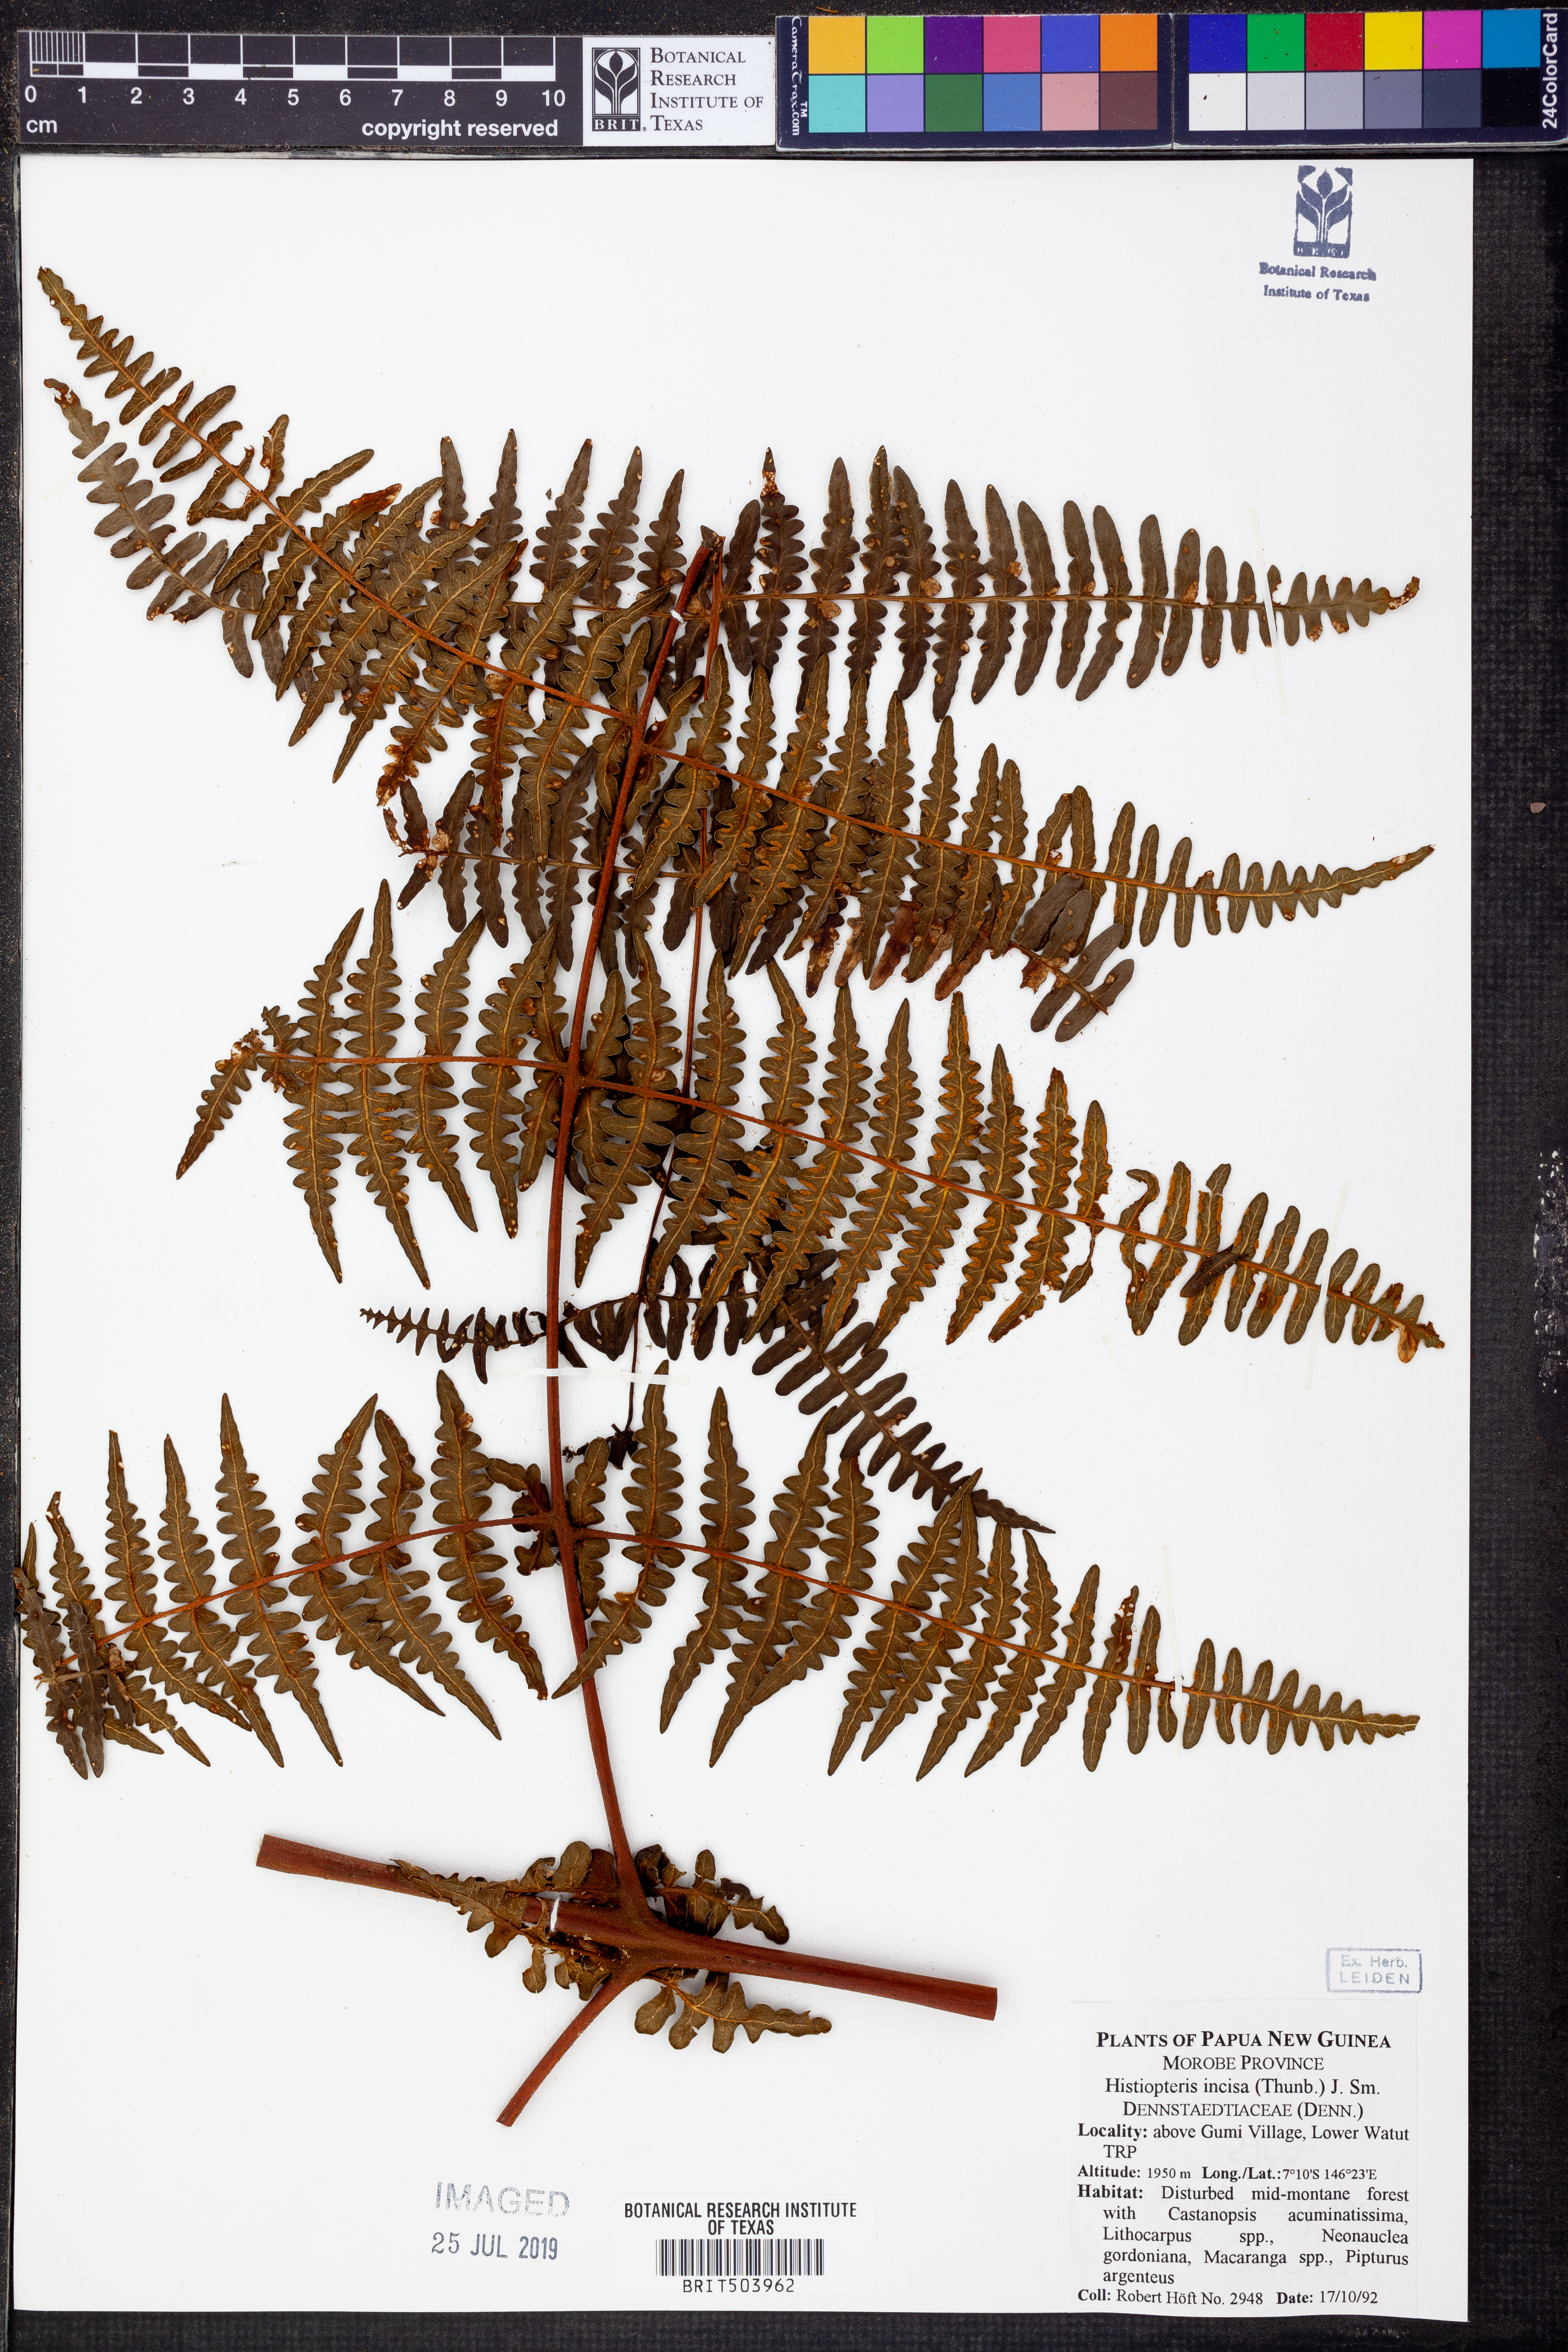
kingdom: Plantae
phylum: Tracheophyta
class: Polypodiopsida
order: Polypodiales
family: Dennstaedtiaceae
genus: Histiopteris
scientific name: Histiopteris incisa
